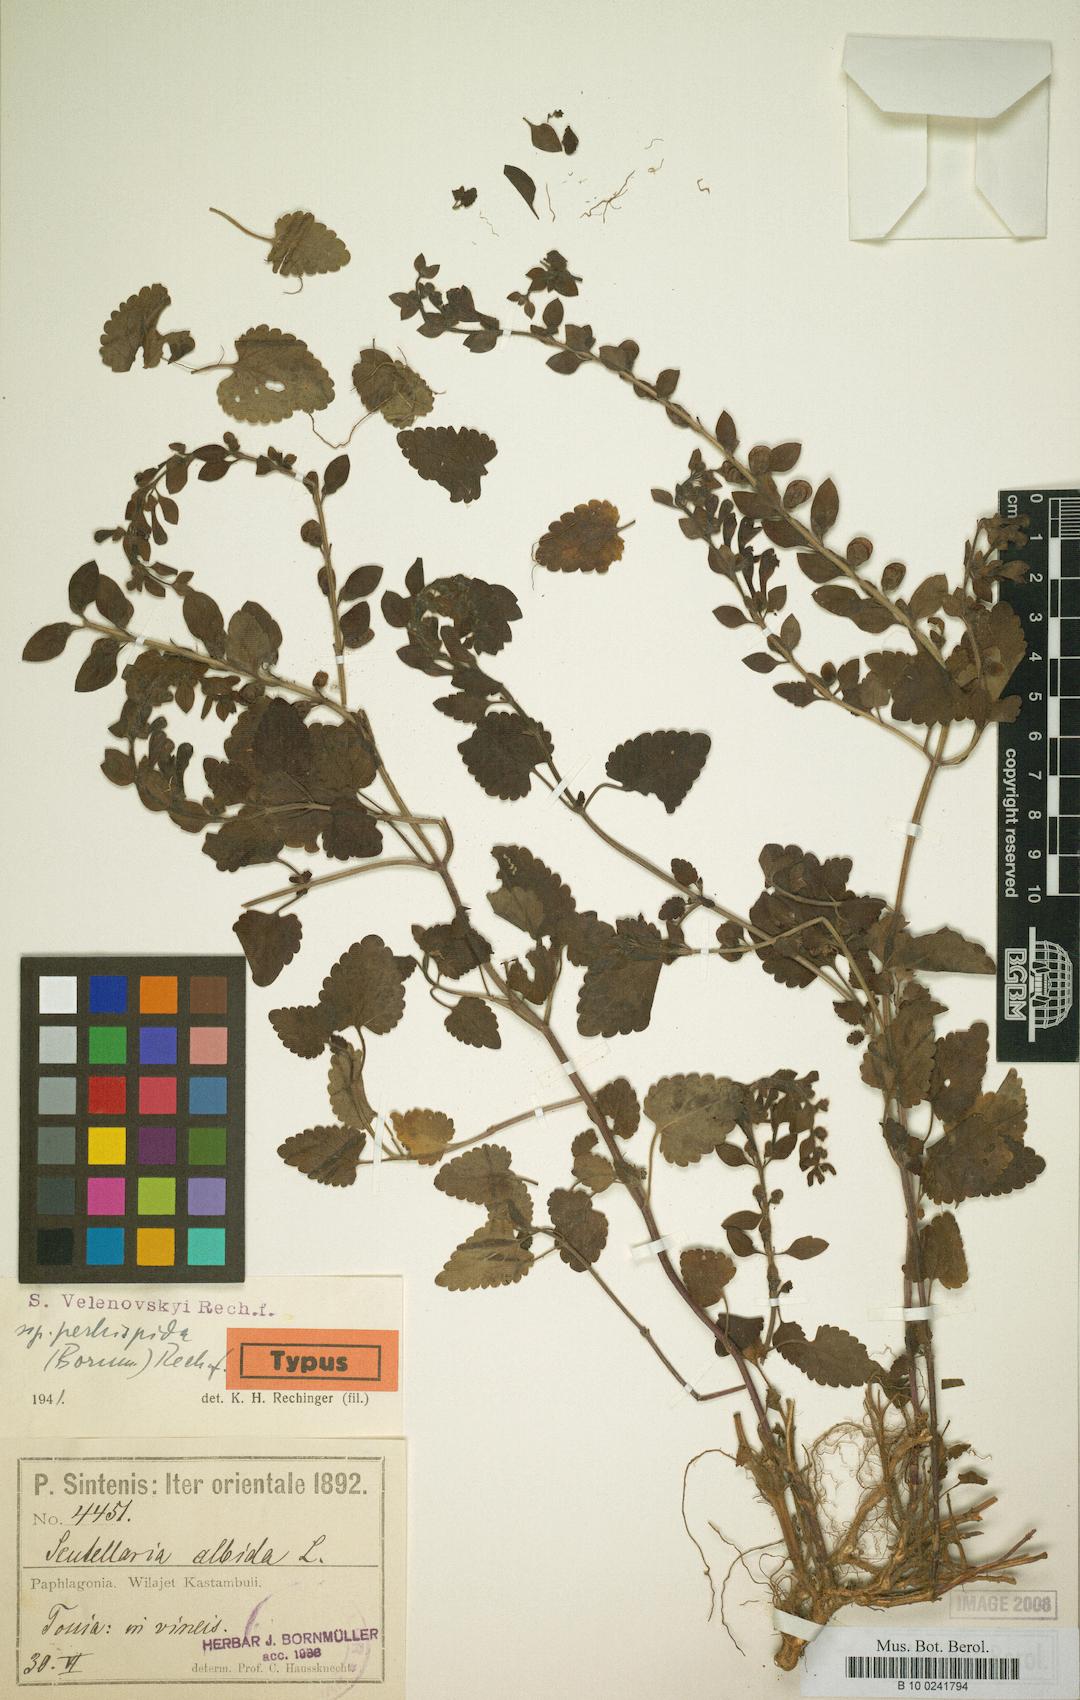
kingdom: Plantae
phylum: Tracheophyta
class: Magnoliopsida
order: Lamiales
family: Lamiaceae
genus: Scutellaria
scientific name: Scutellaria albida
